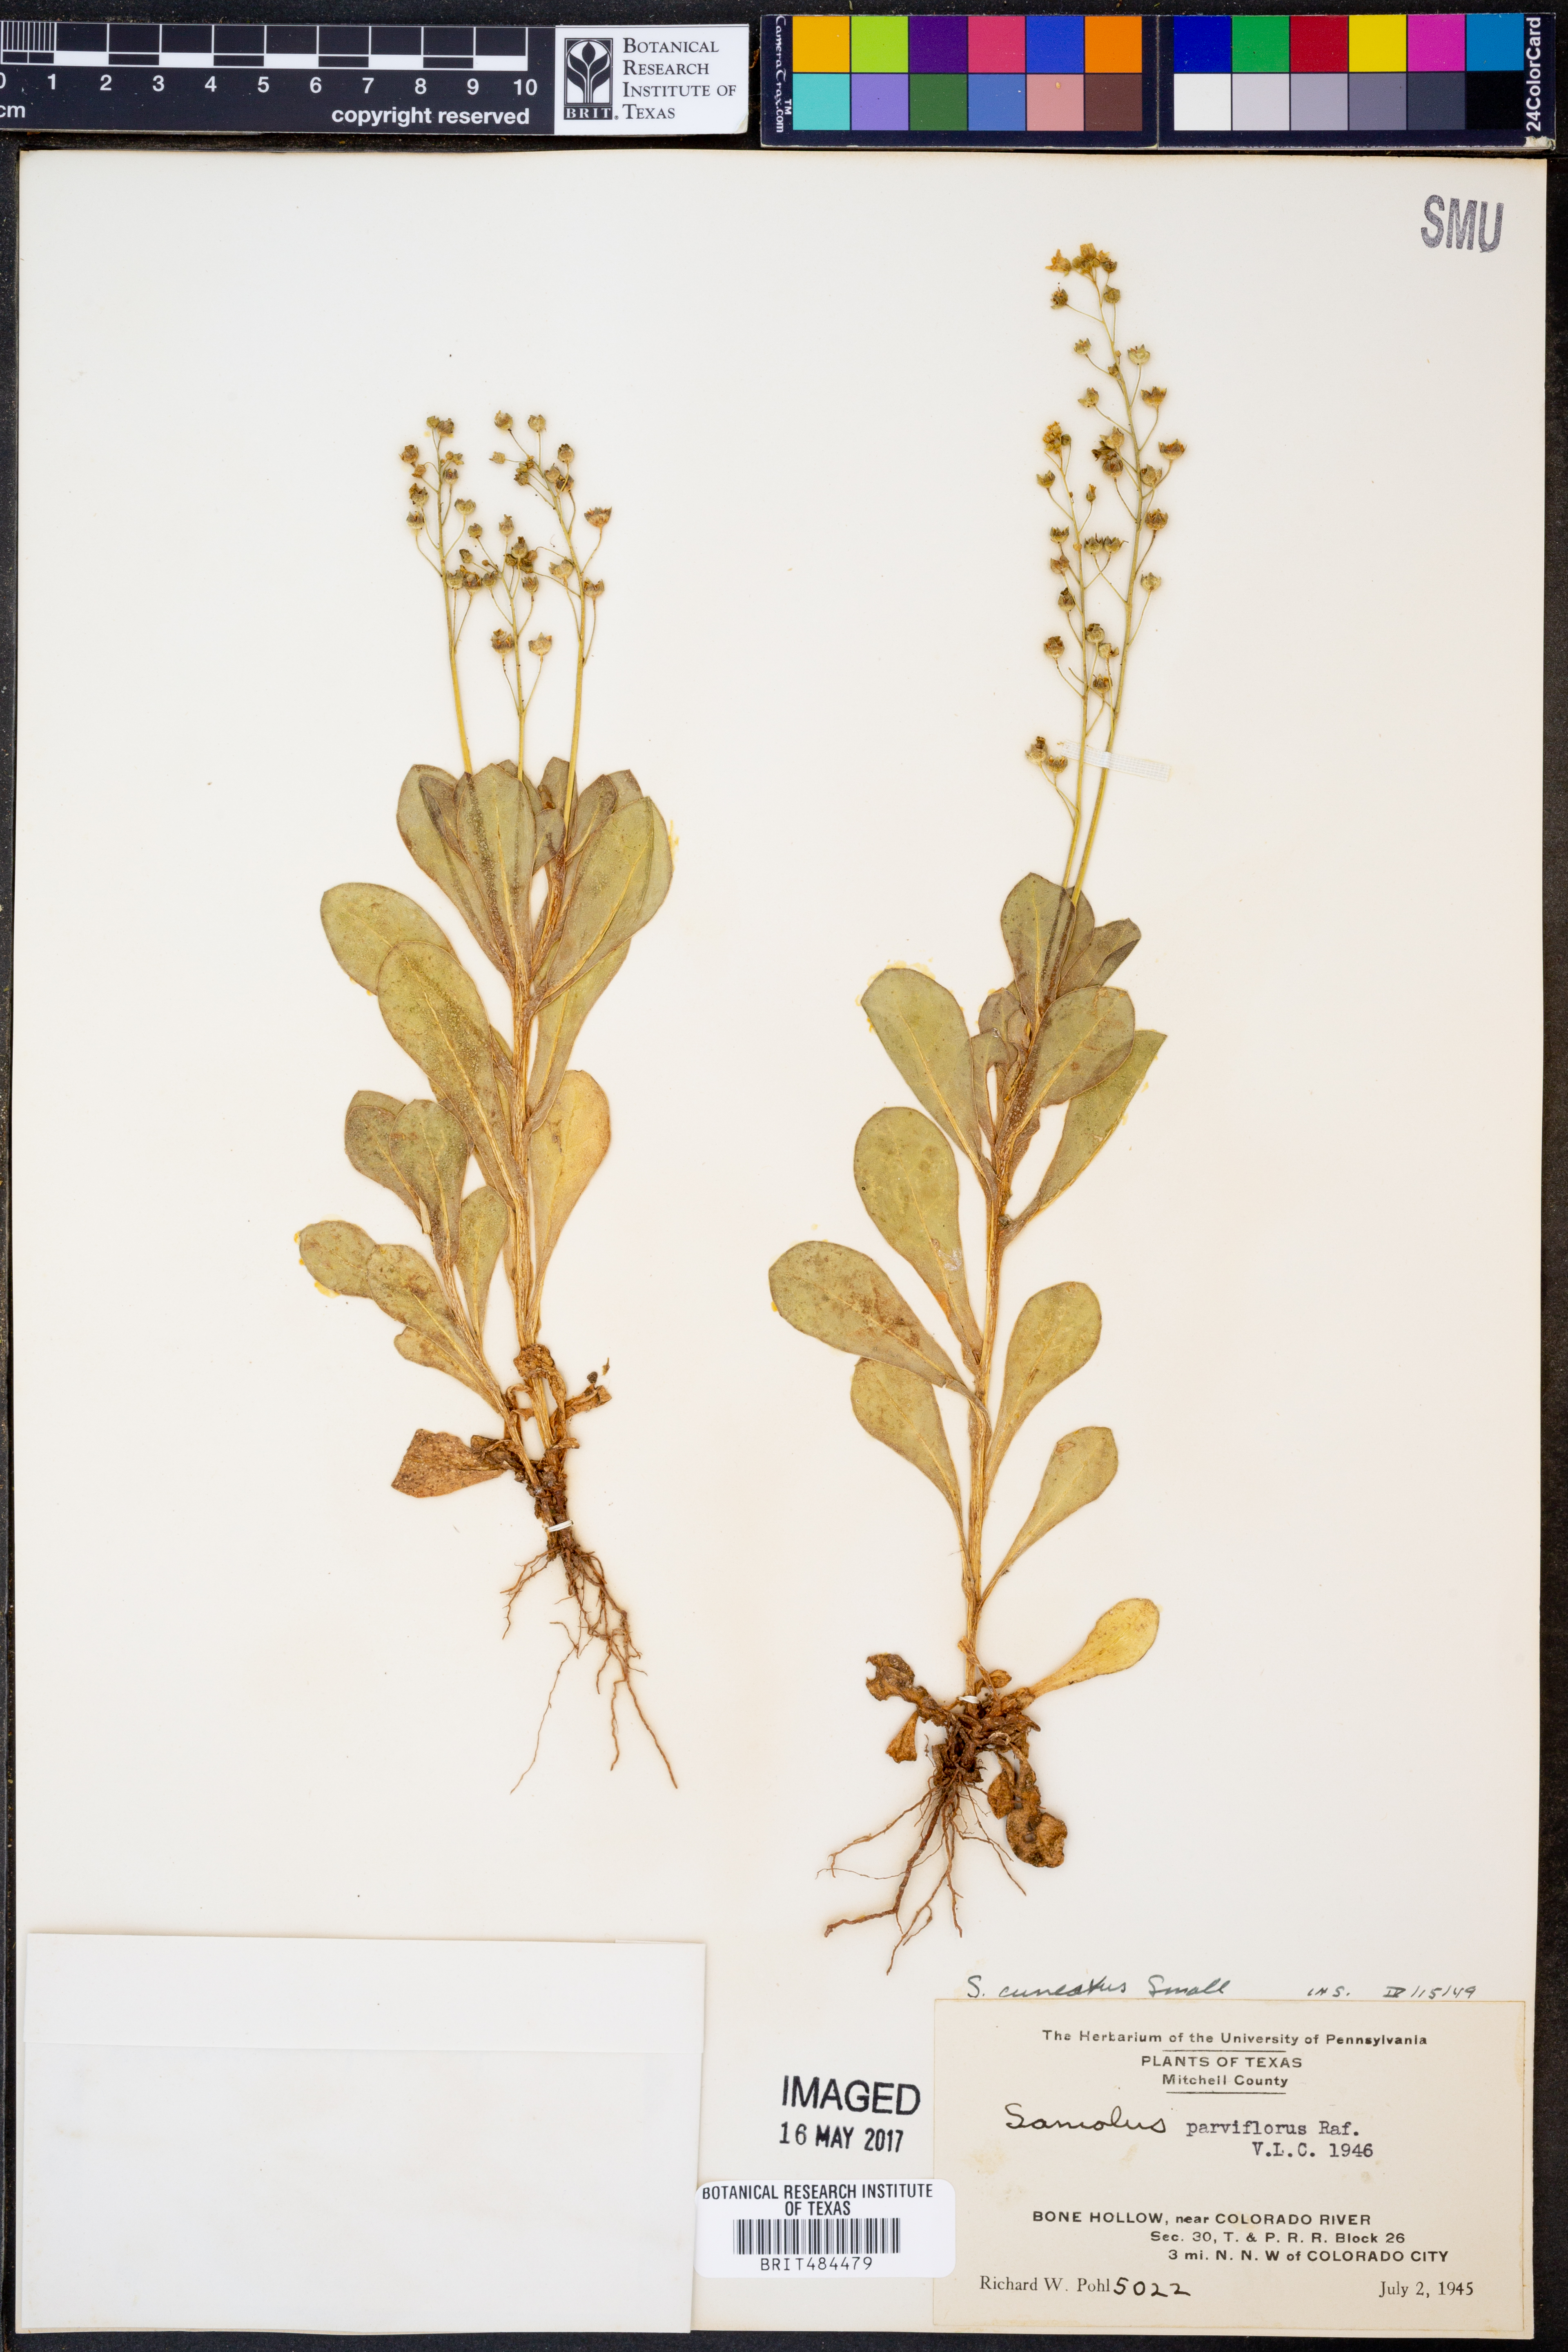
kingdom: Plantae
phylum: Tracheophyta
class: Magnoliopsida
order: Ericales
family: Primulaceae
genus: Samolus
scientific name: Samolus ebracteatus
